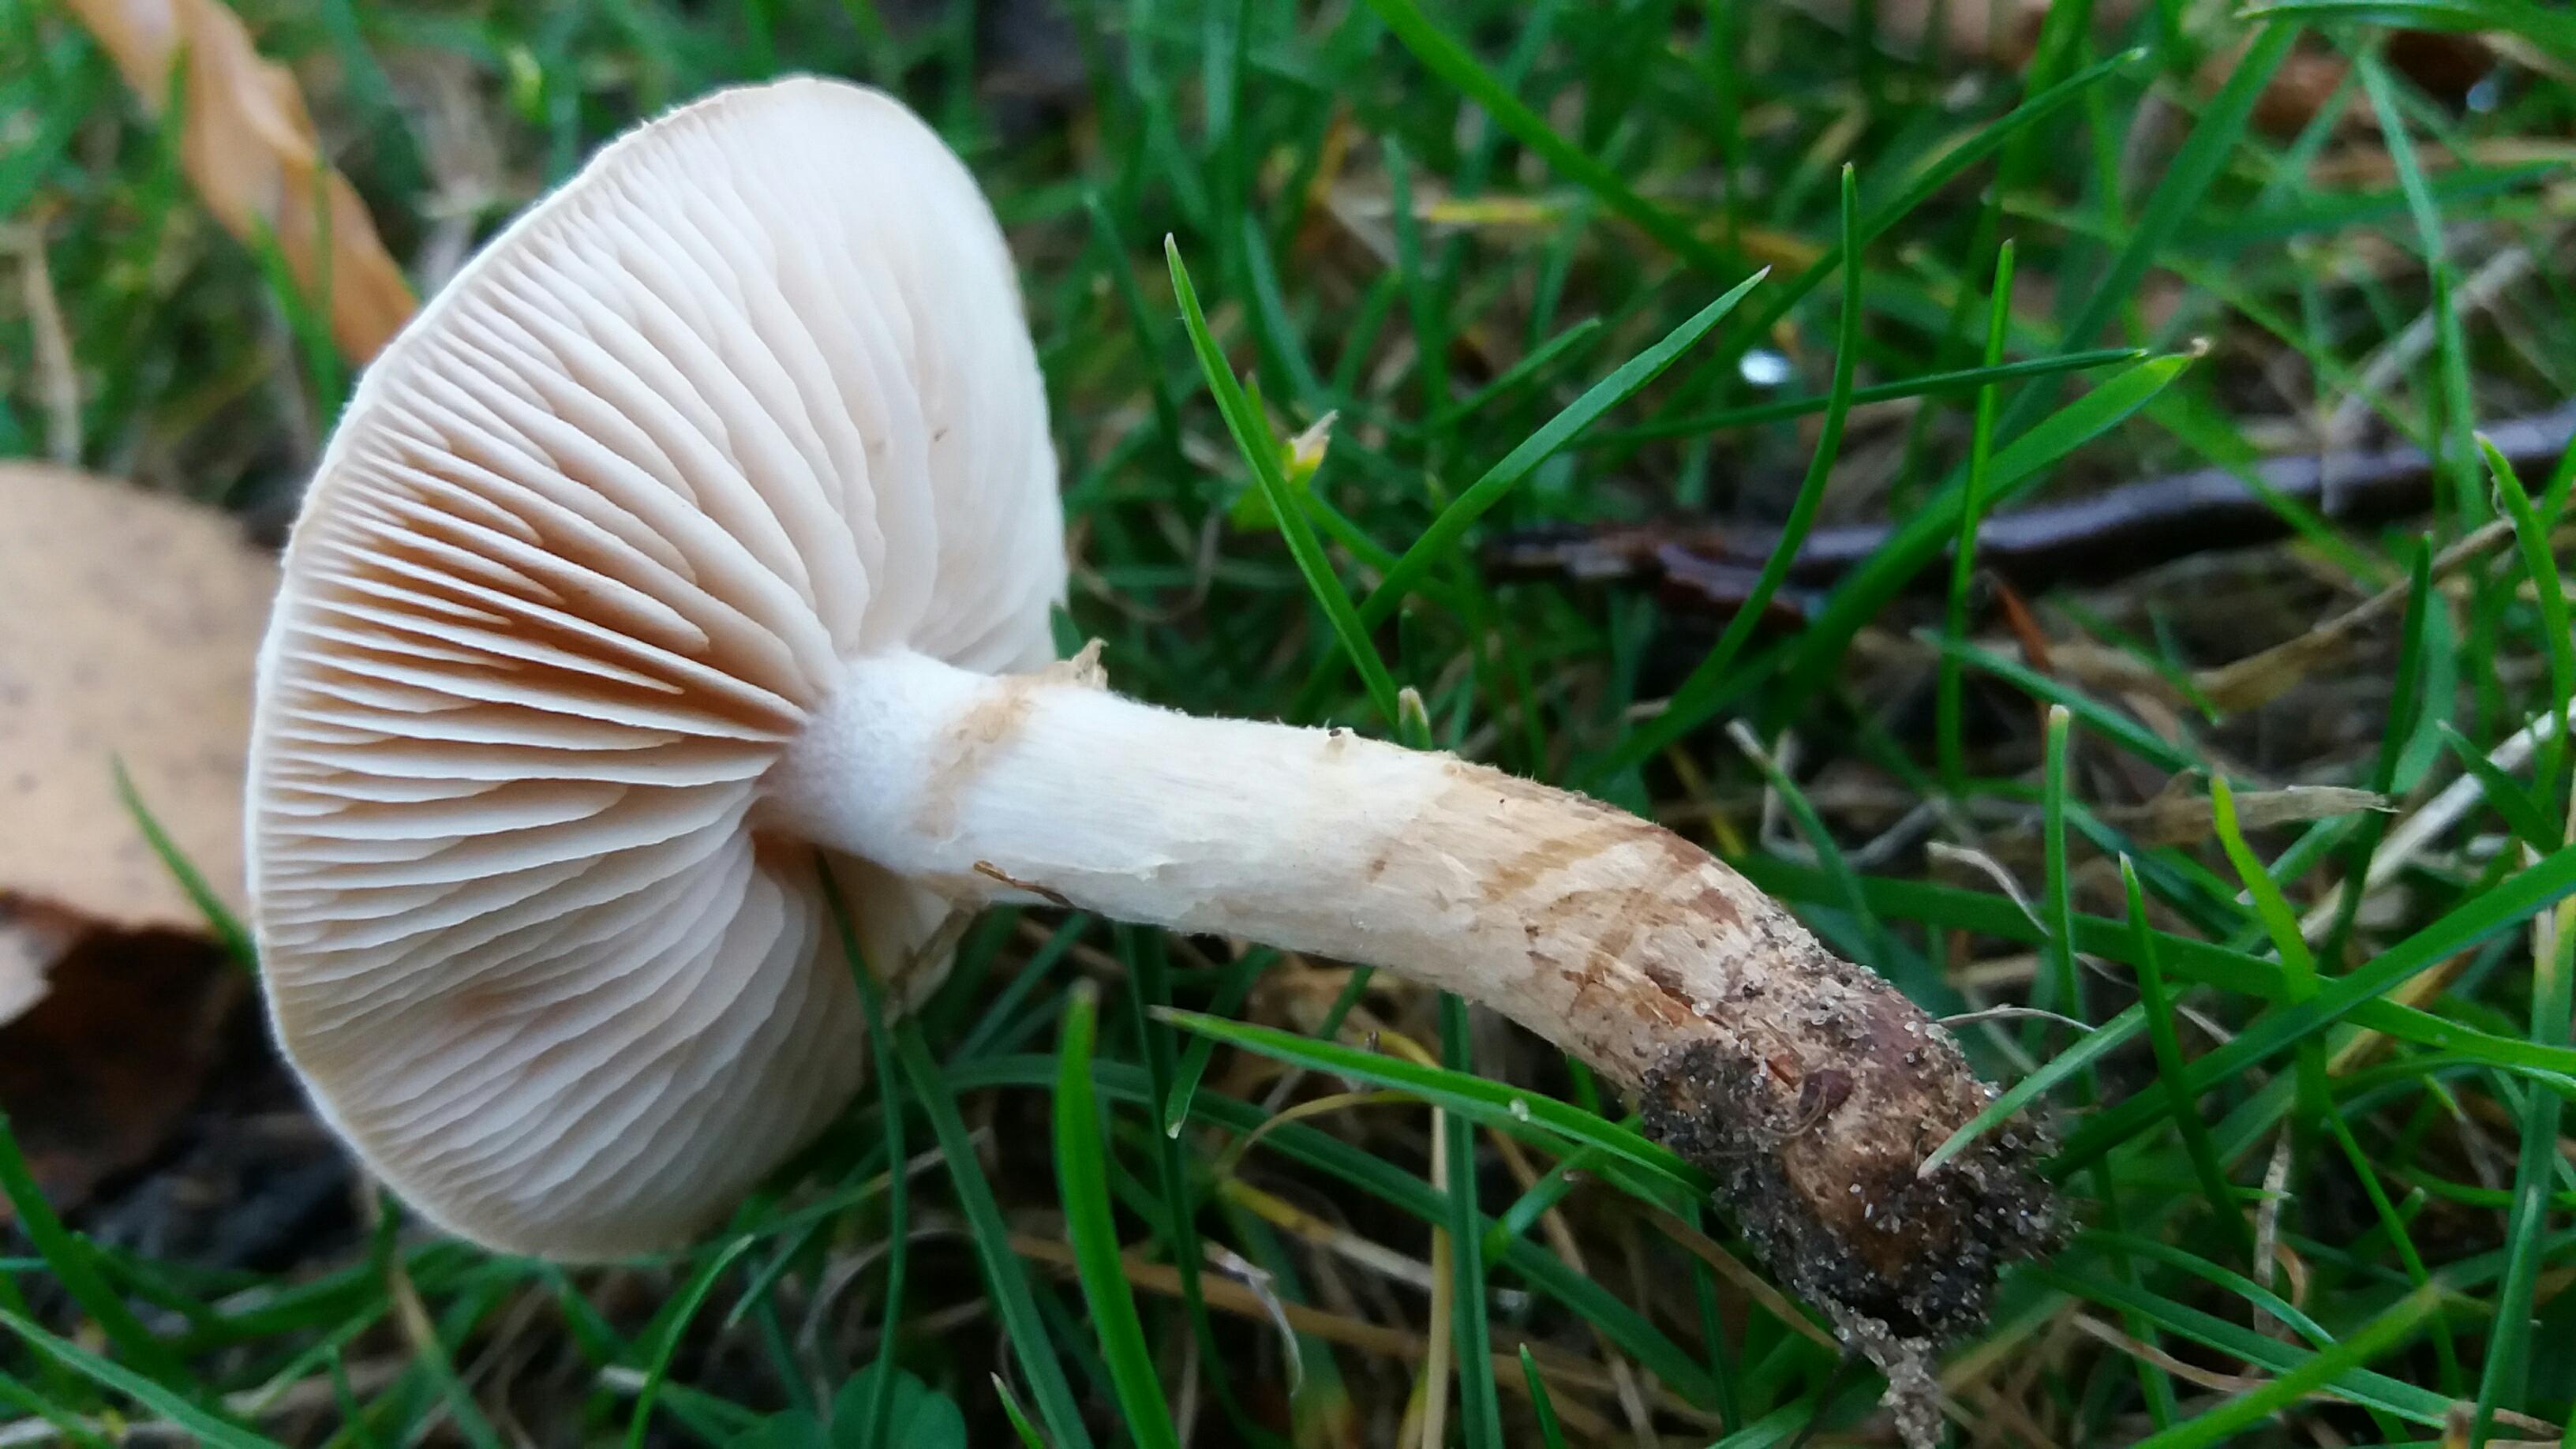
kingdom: Fungi
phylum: Basidiomycota
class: Agaricomycetes
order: Agaricales
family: Hymenogastraceae
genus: Hebeloma
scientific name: Hebeloma mesophaeum
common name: lerbrun tåreblad
